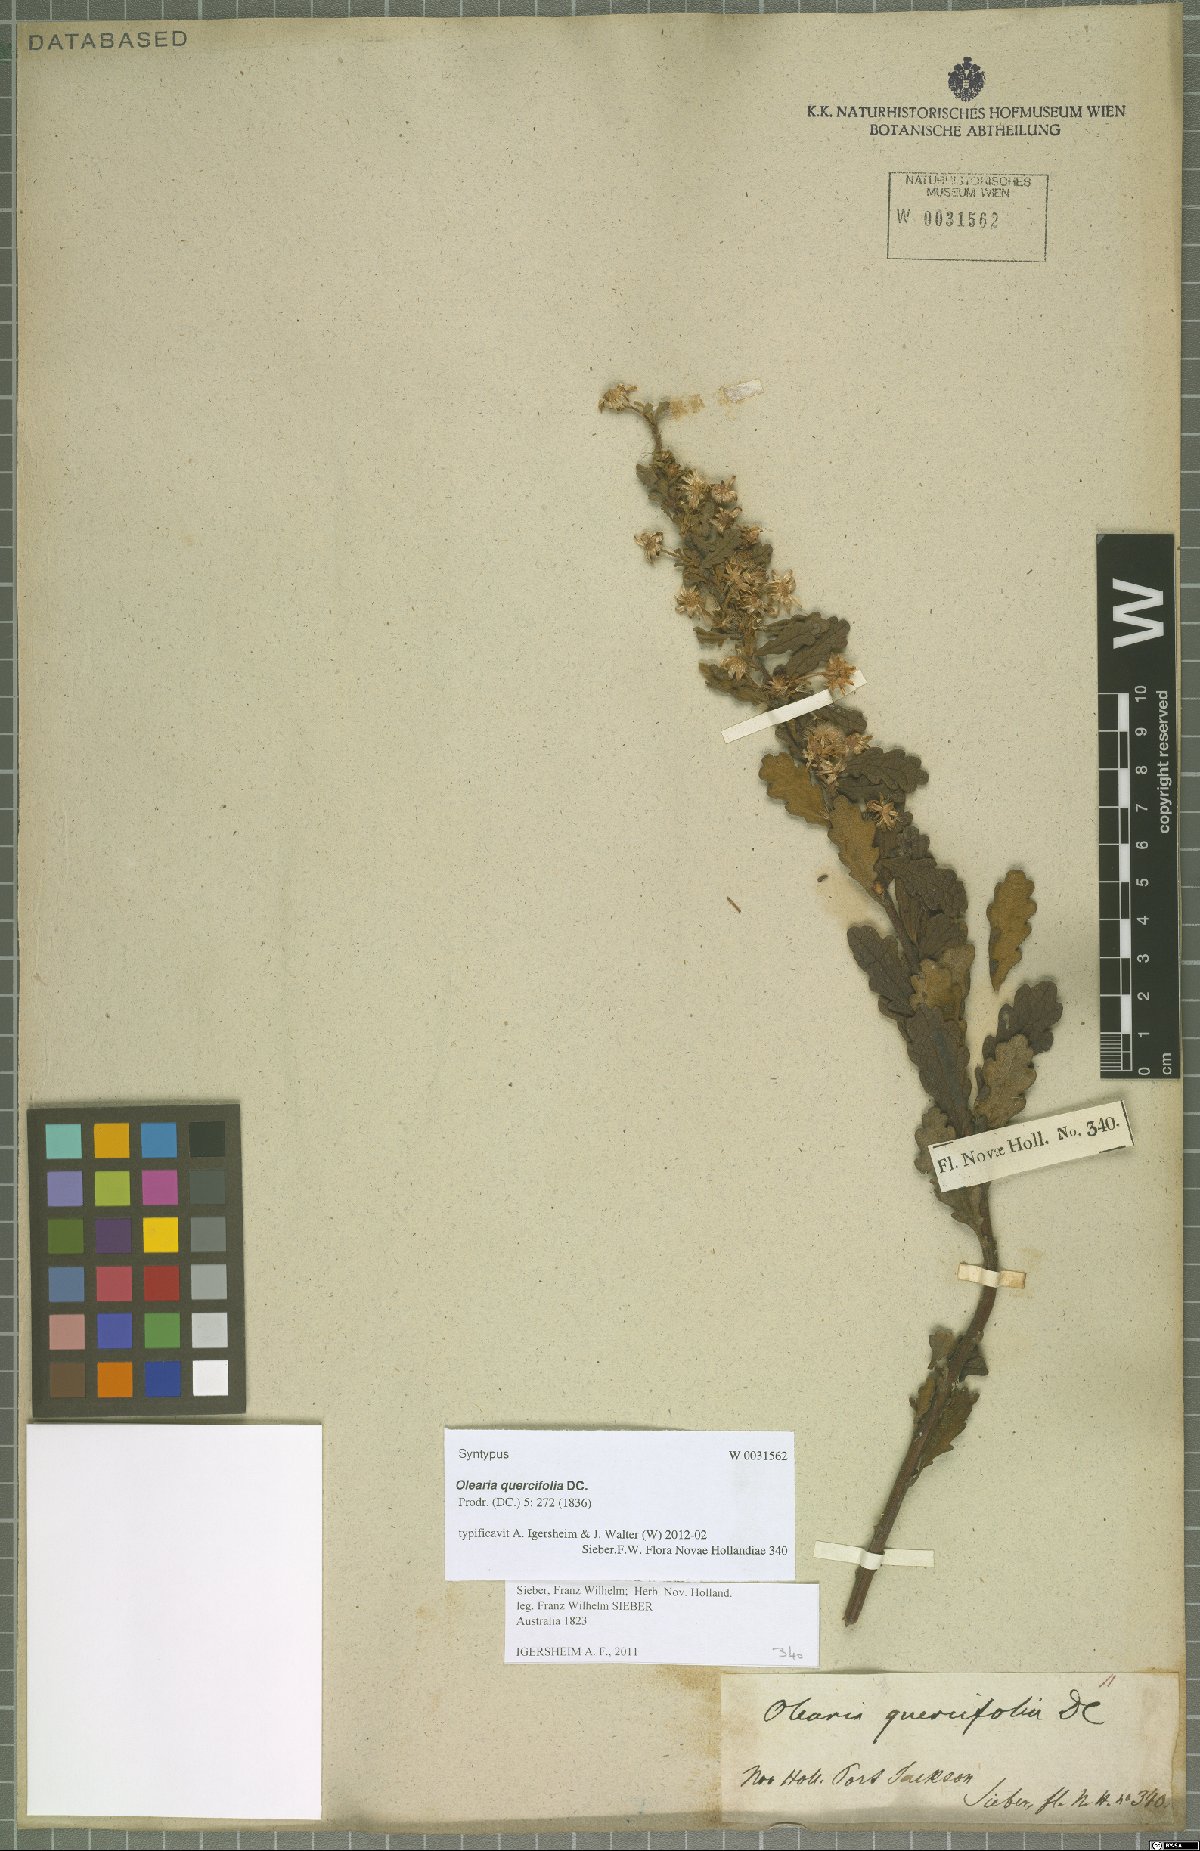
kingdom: Plantae
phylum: Tracheophyta
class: Magnoliopsida
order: Asterales
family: Asteraceae
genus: Olearia
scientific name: Olearia quercifolia
